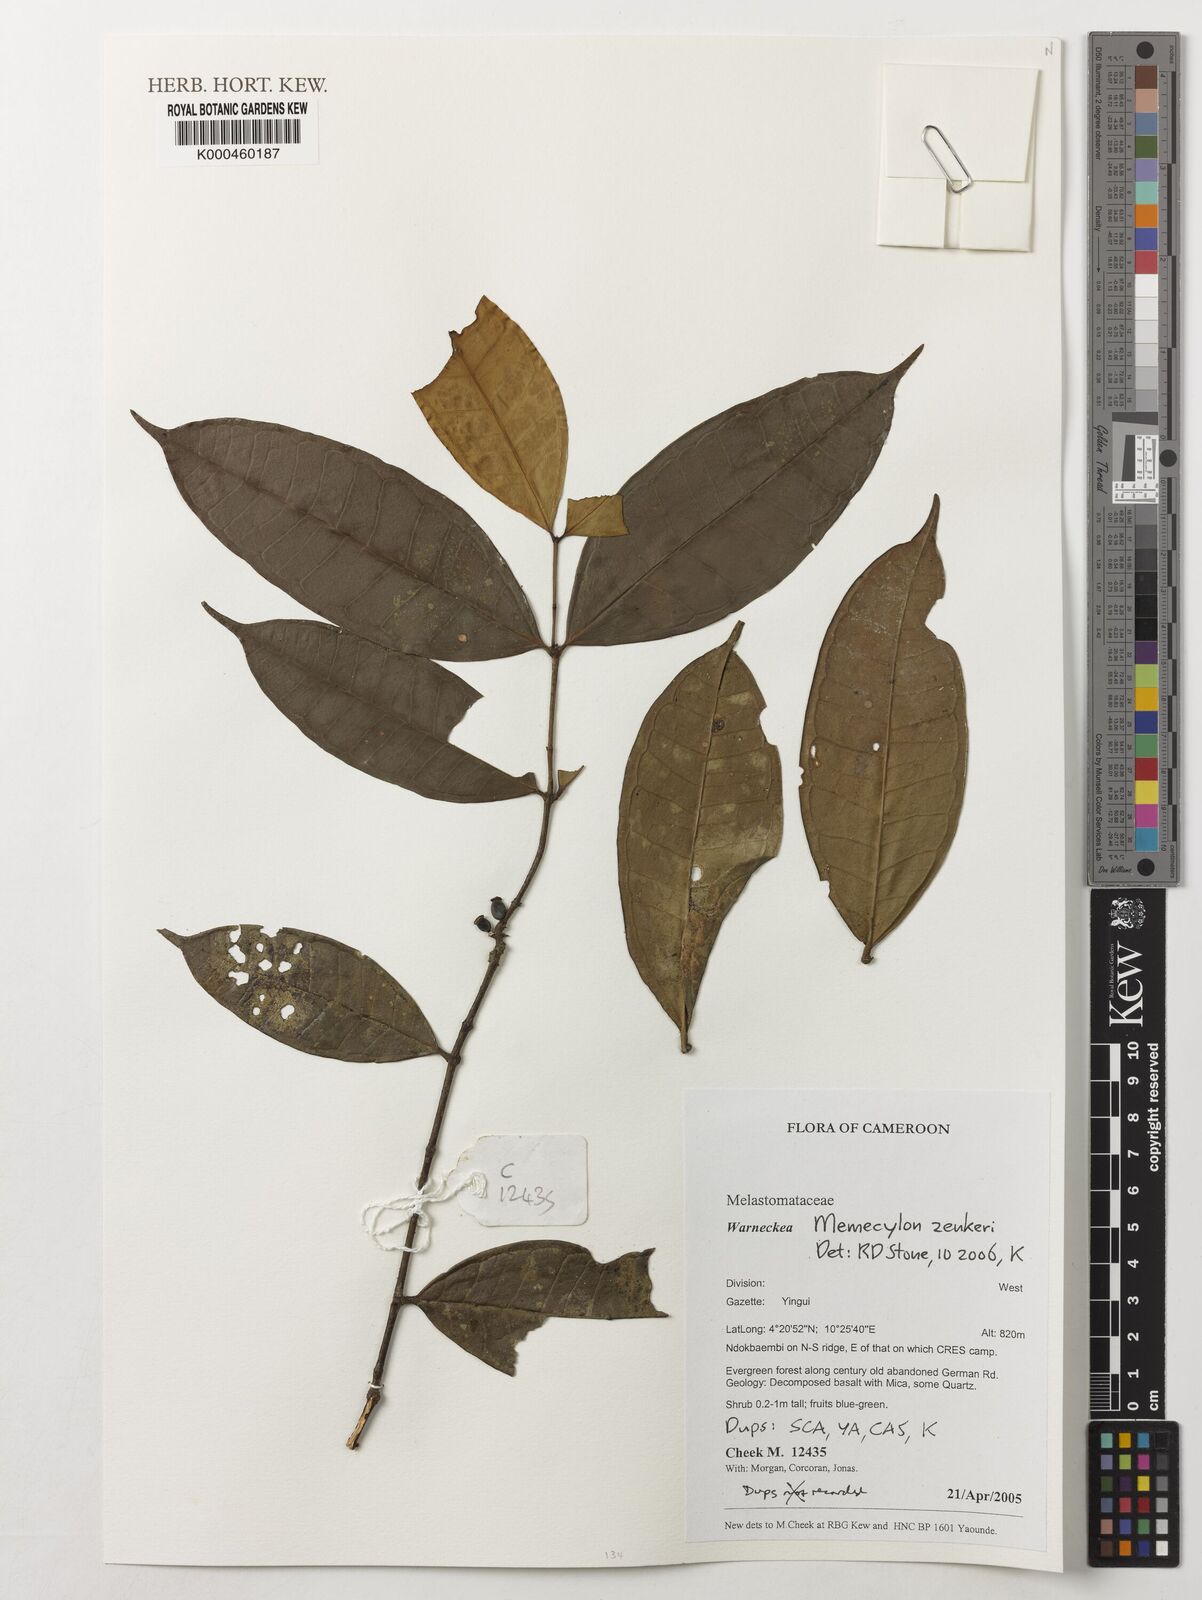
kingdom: Plantae
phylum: Tracheophyta
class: Magnoliopsida
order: Myrtales
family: Melastomataceae
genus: Memecylon
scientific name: Memecylon zenkeri
